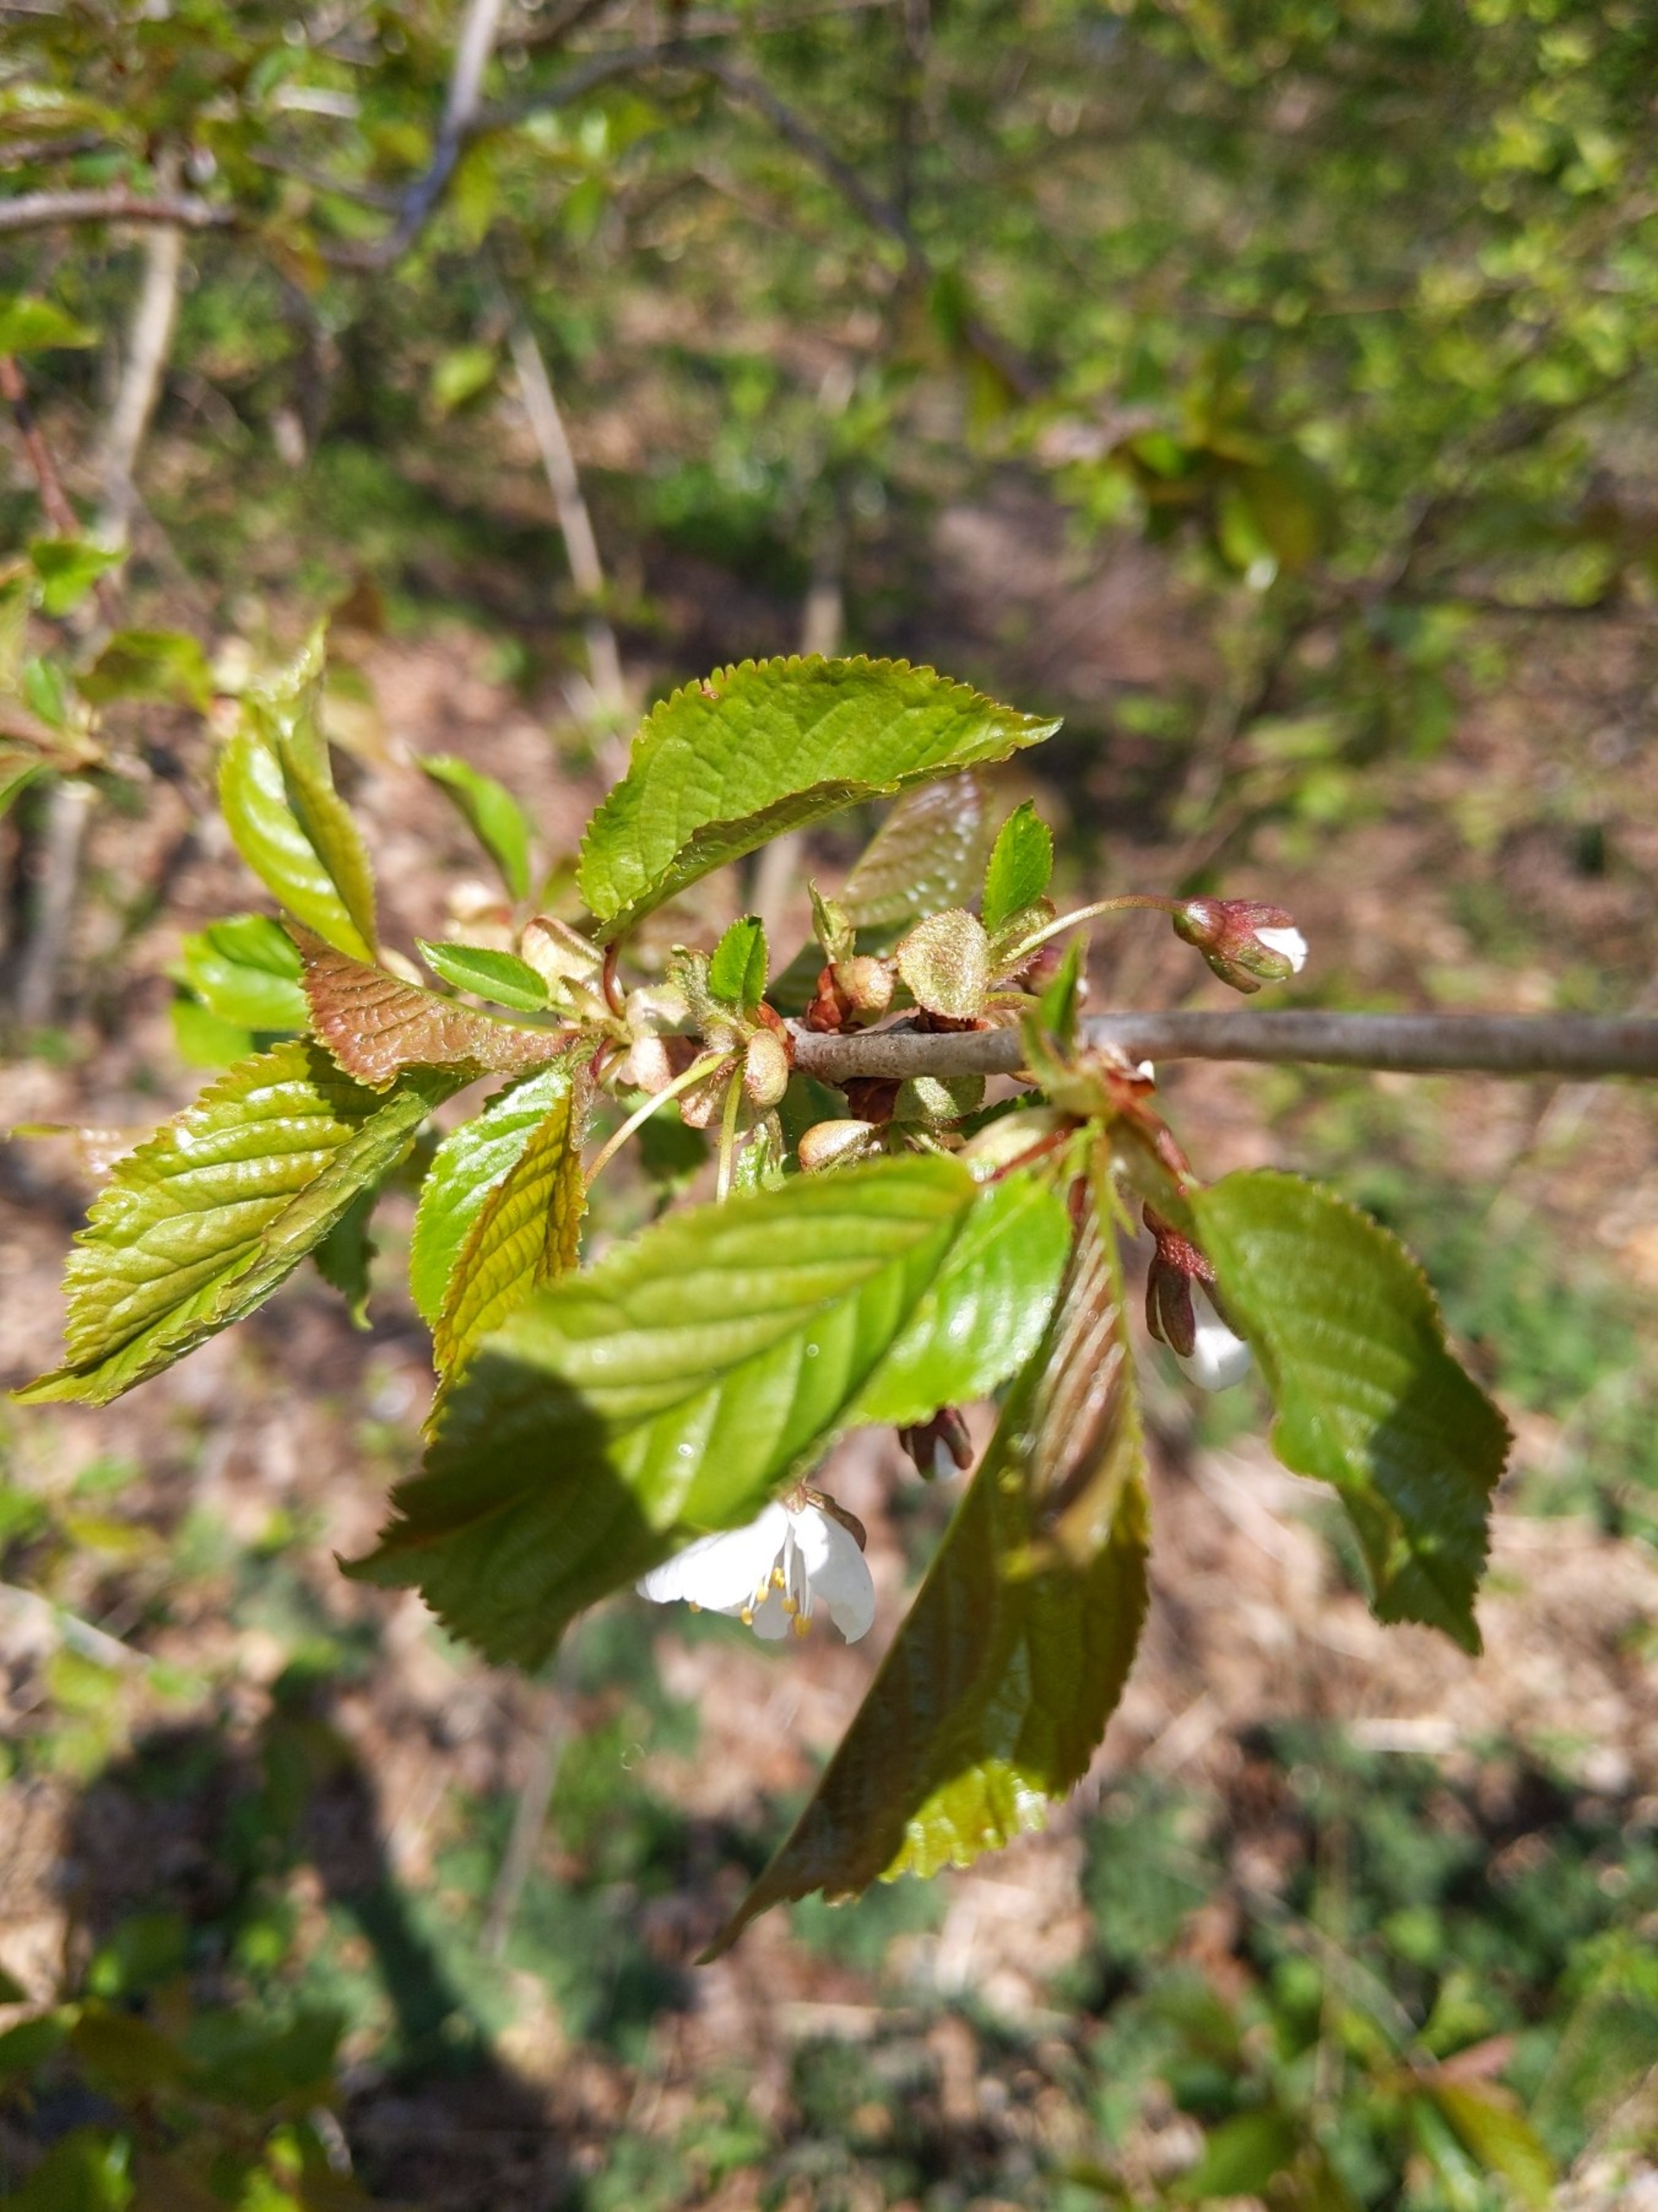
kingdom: Plantae
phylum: Tracheophyta
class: Magnoliopsida
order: Rosales
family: Rosaceae
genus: Prunus
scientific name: Prunus avium
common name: Fugle-kirsebær
